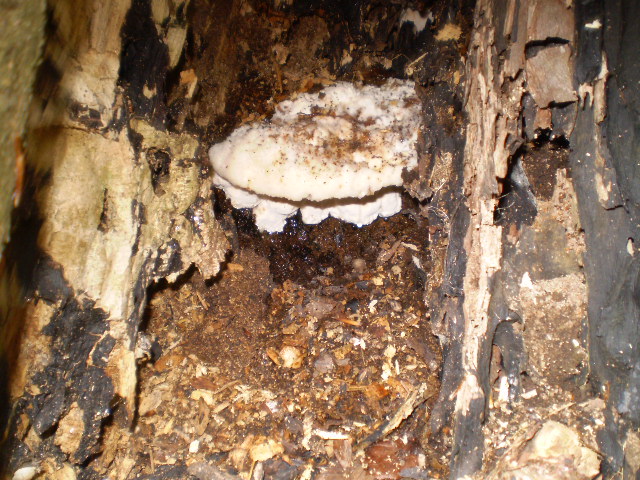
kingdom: Fungi
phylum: Basidiomycota
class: Agaricomycetes
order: Polyporales
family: Meruliaceae
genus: Pappia
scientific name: Pappia fissilis
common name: rosa fedtporesvamp
